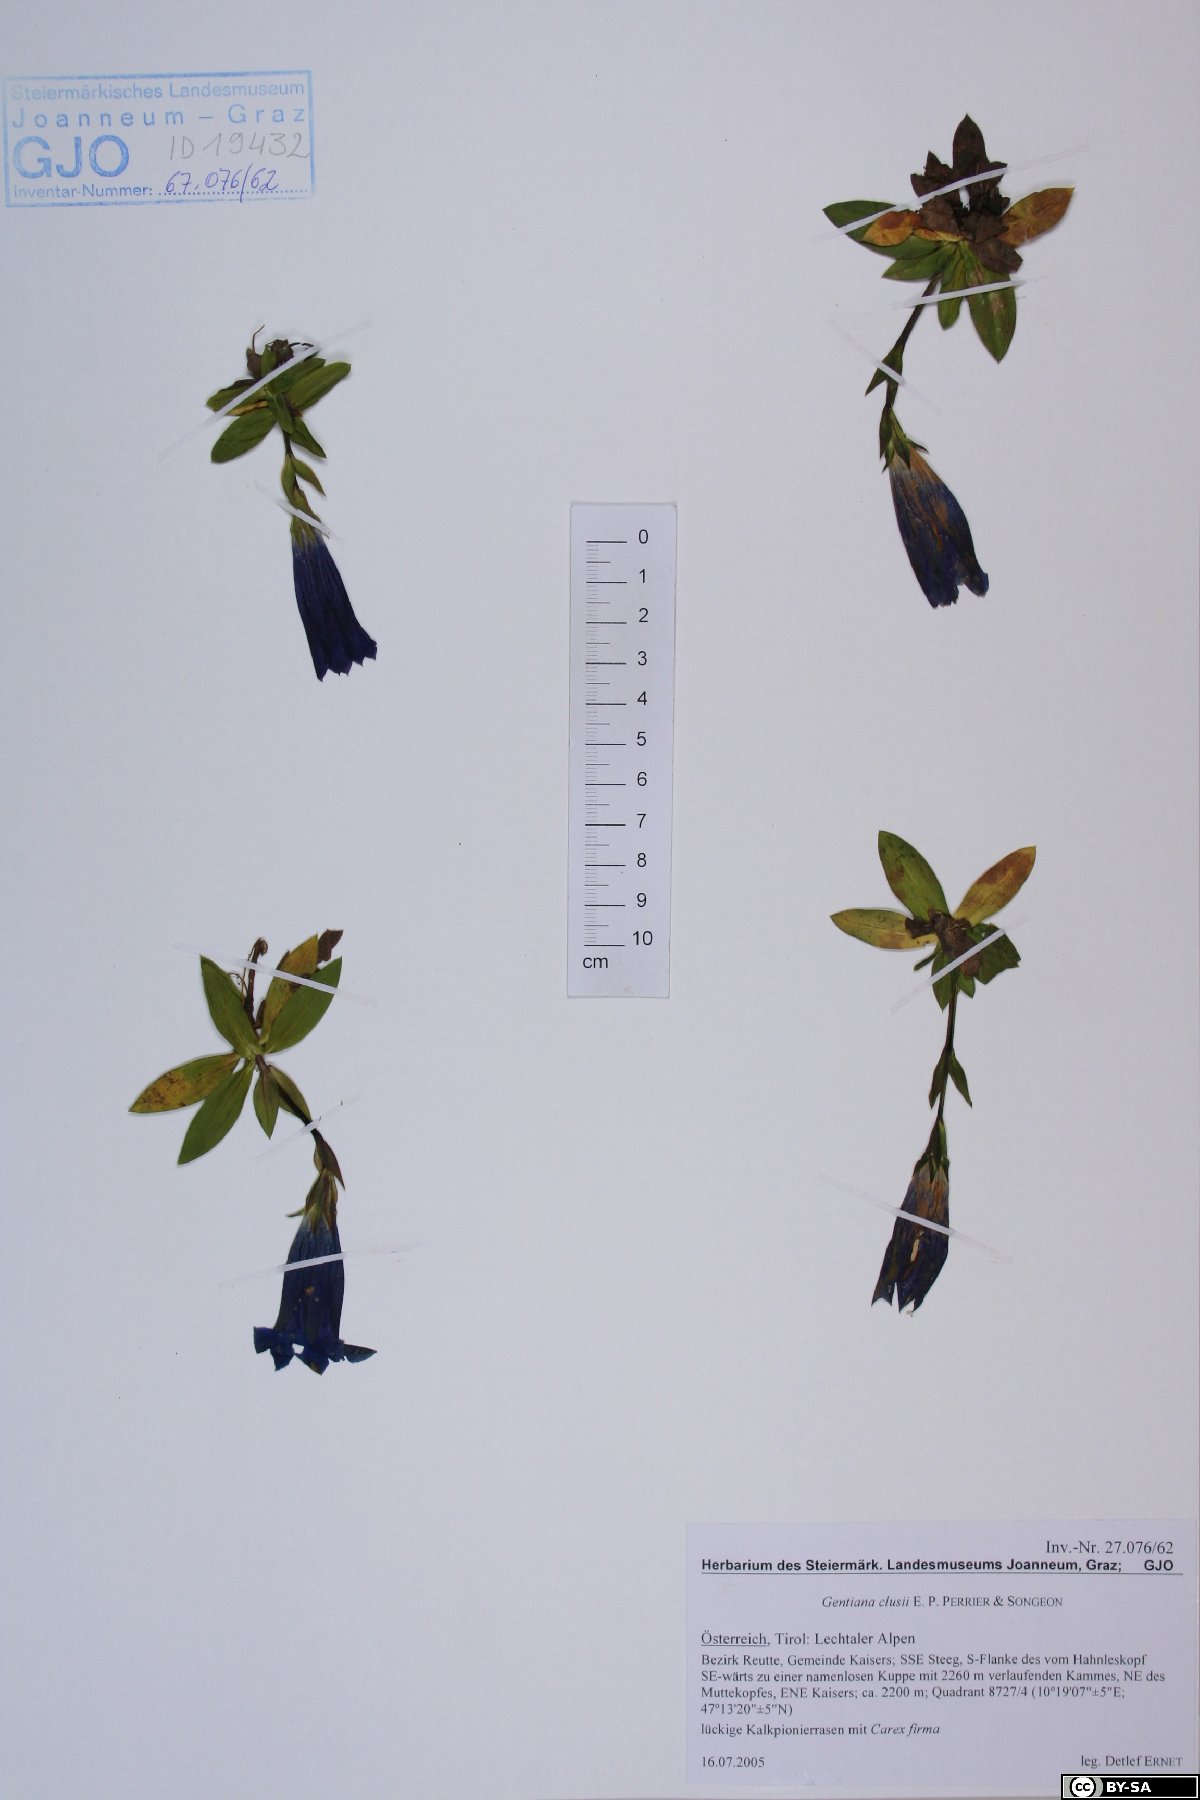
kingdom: Plantae
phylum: Tracheophyta
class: Magnoliopsida
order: Gentianales
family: Gentianaceae
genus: Gentiana
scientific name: Gentiana clusii
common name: Trumpet gentian
